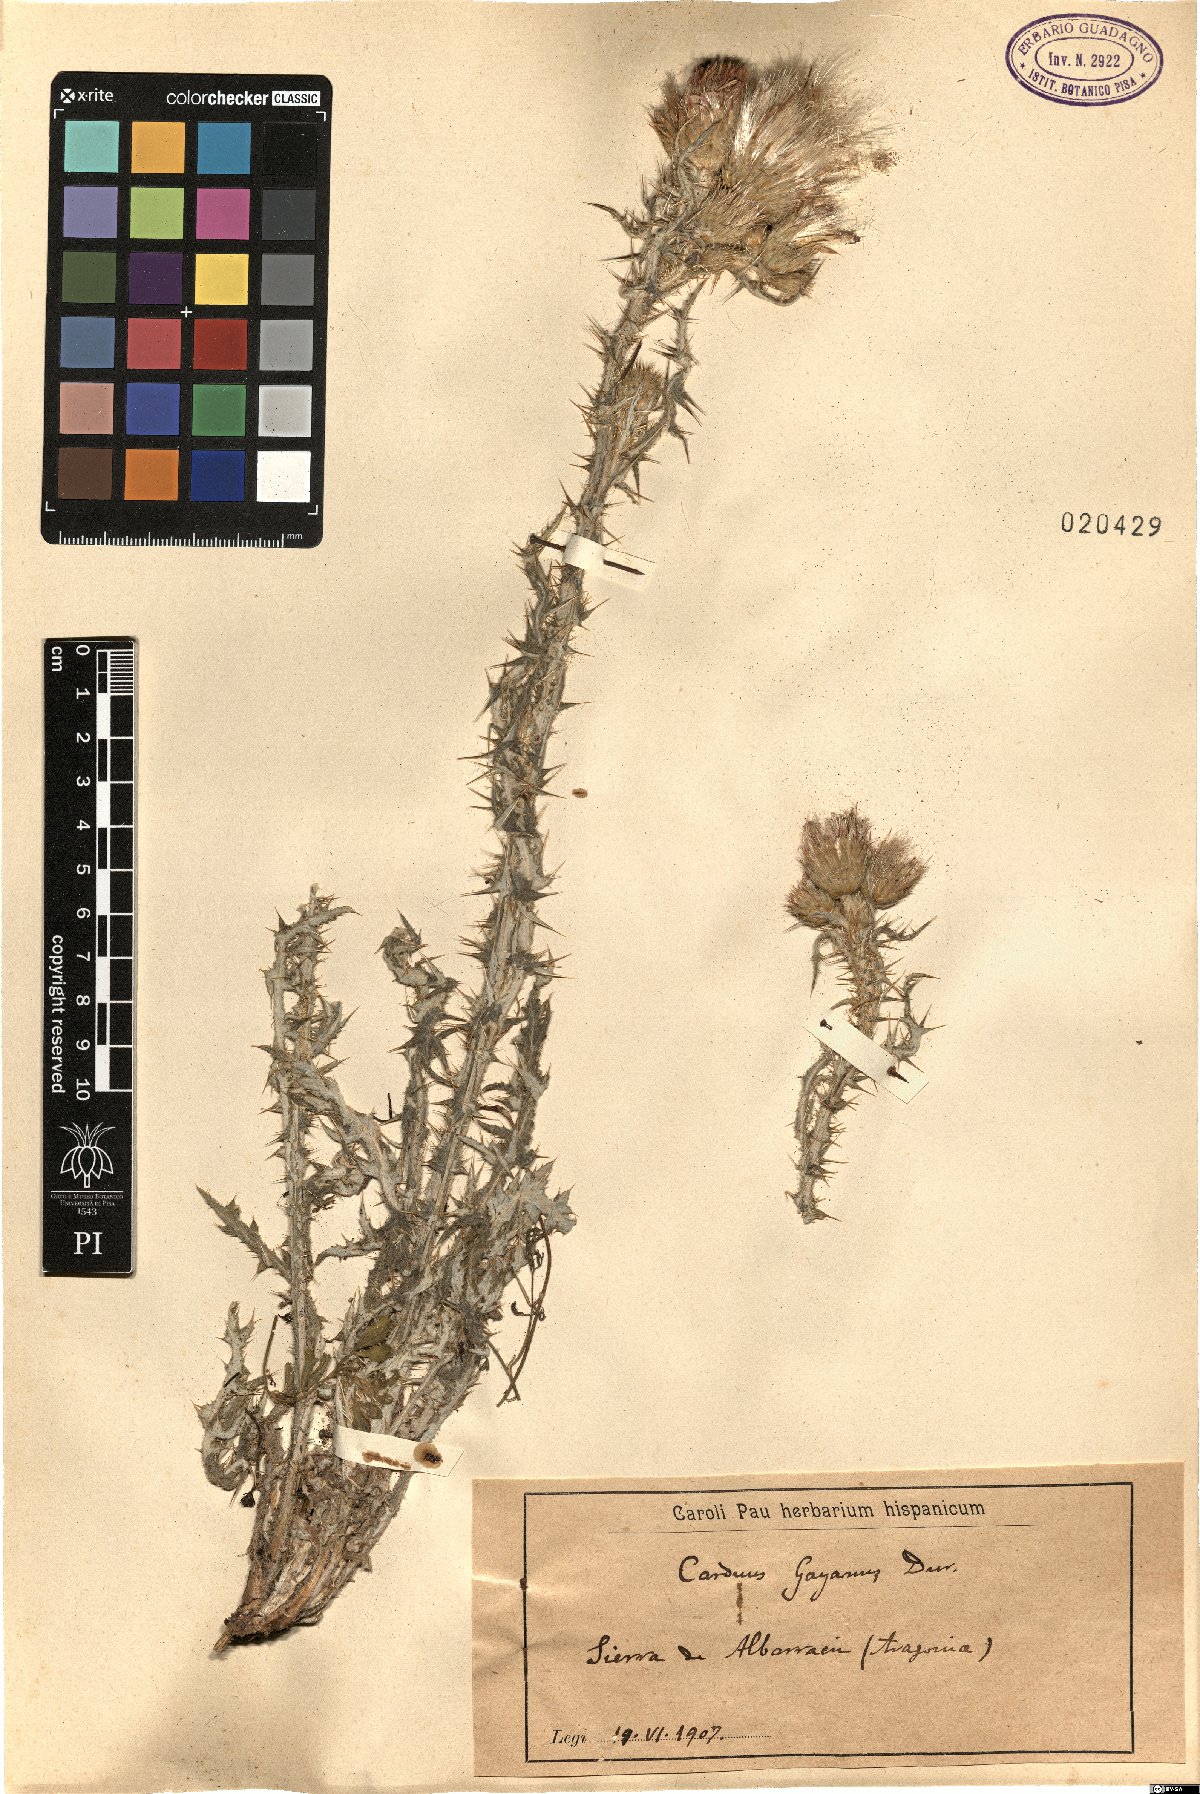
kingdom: Plantae
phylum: Tracheophyta
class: Magnoliopsida
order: Asterales
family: Asteraceae
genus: Carduus
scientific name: Carduus carpetanus
